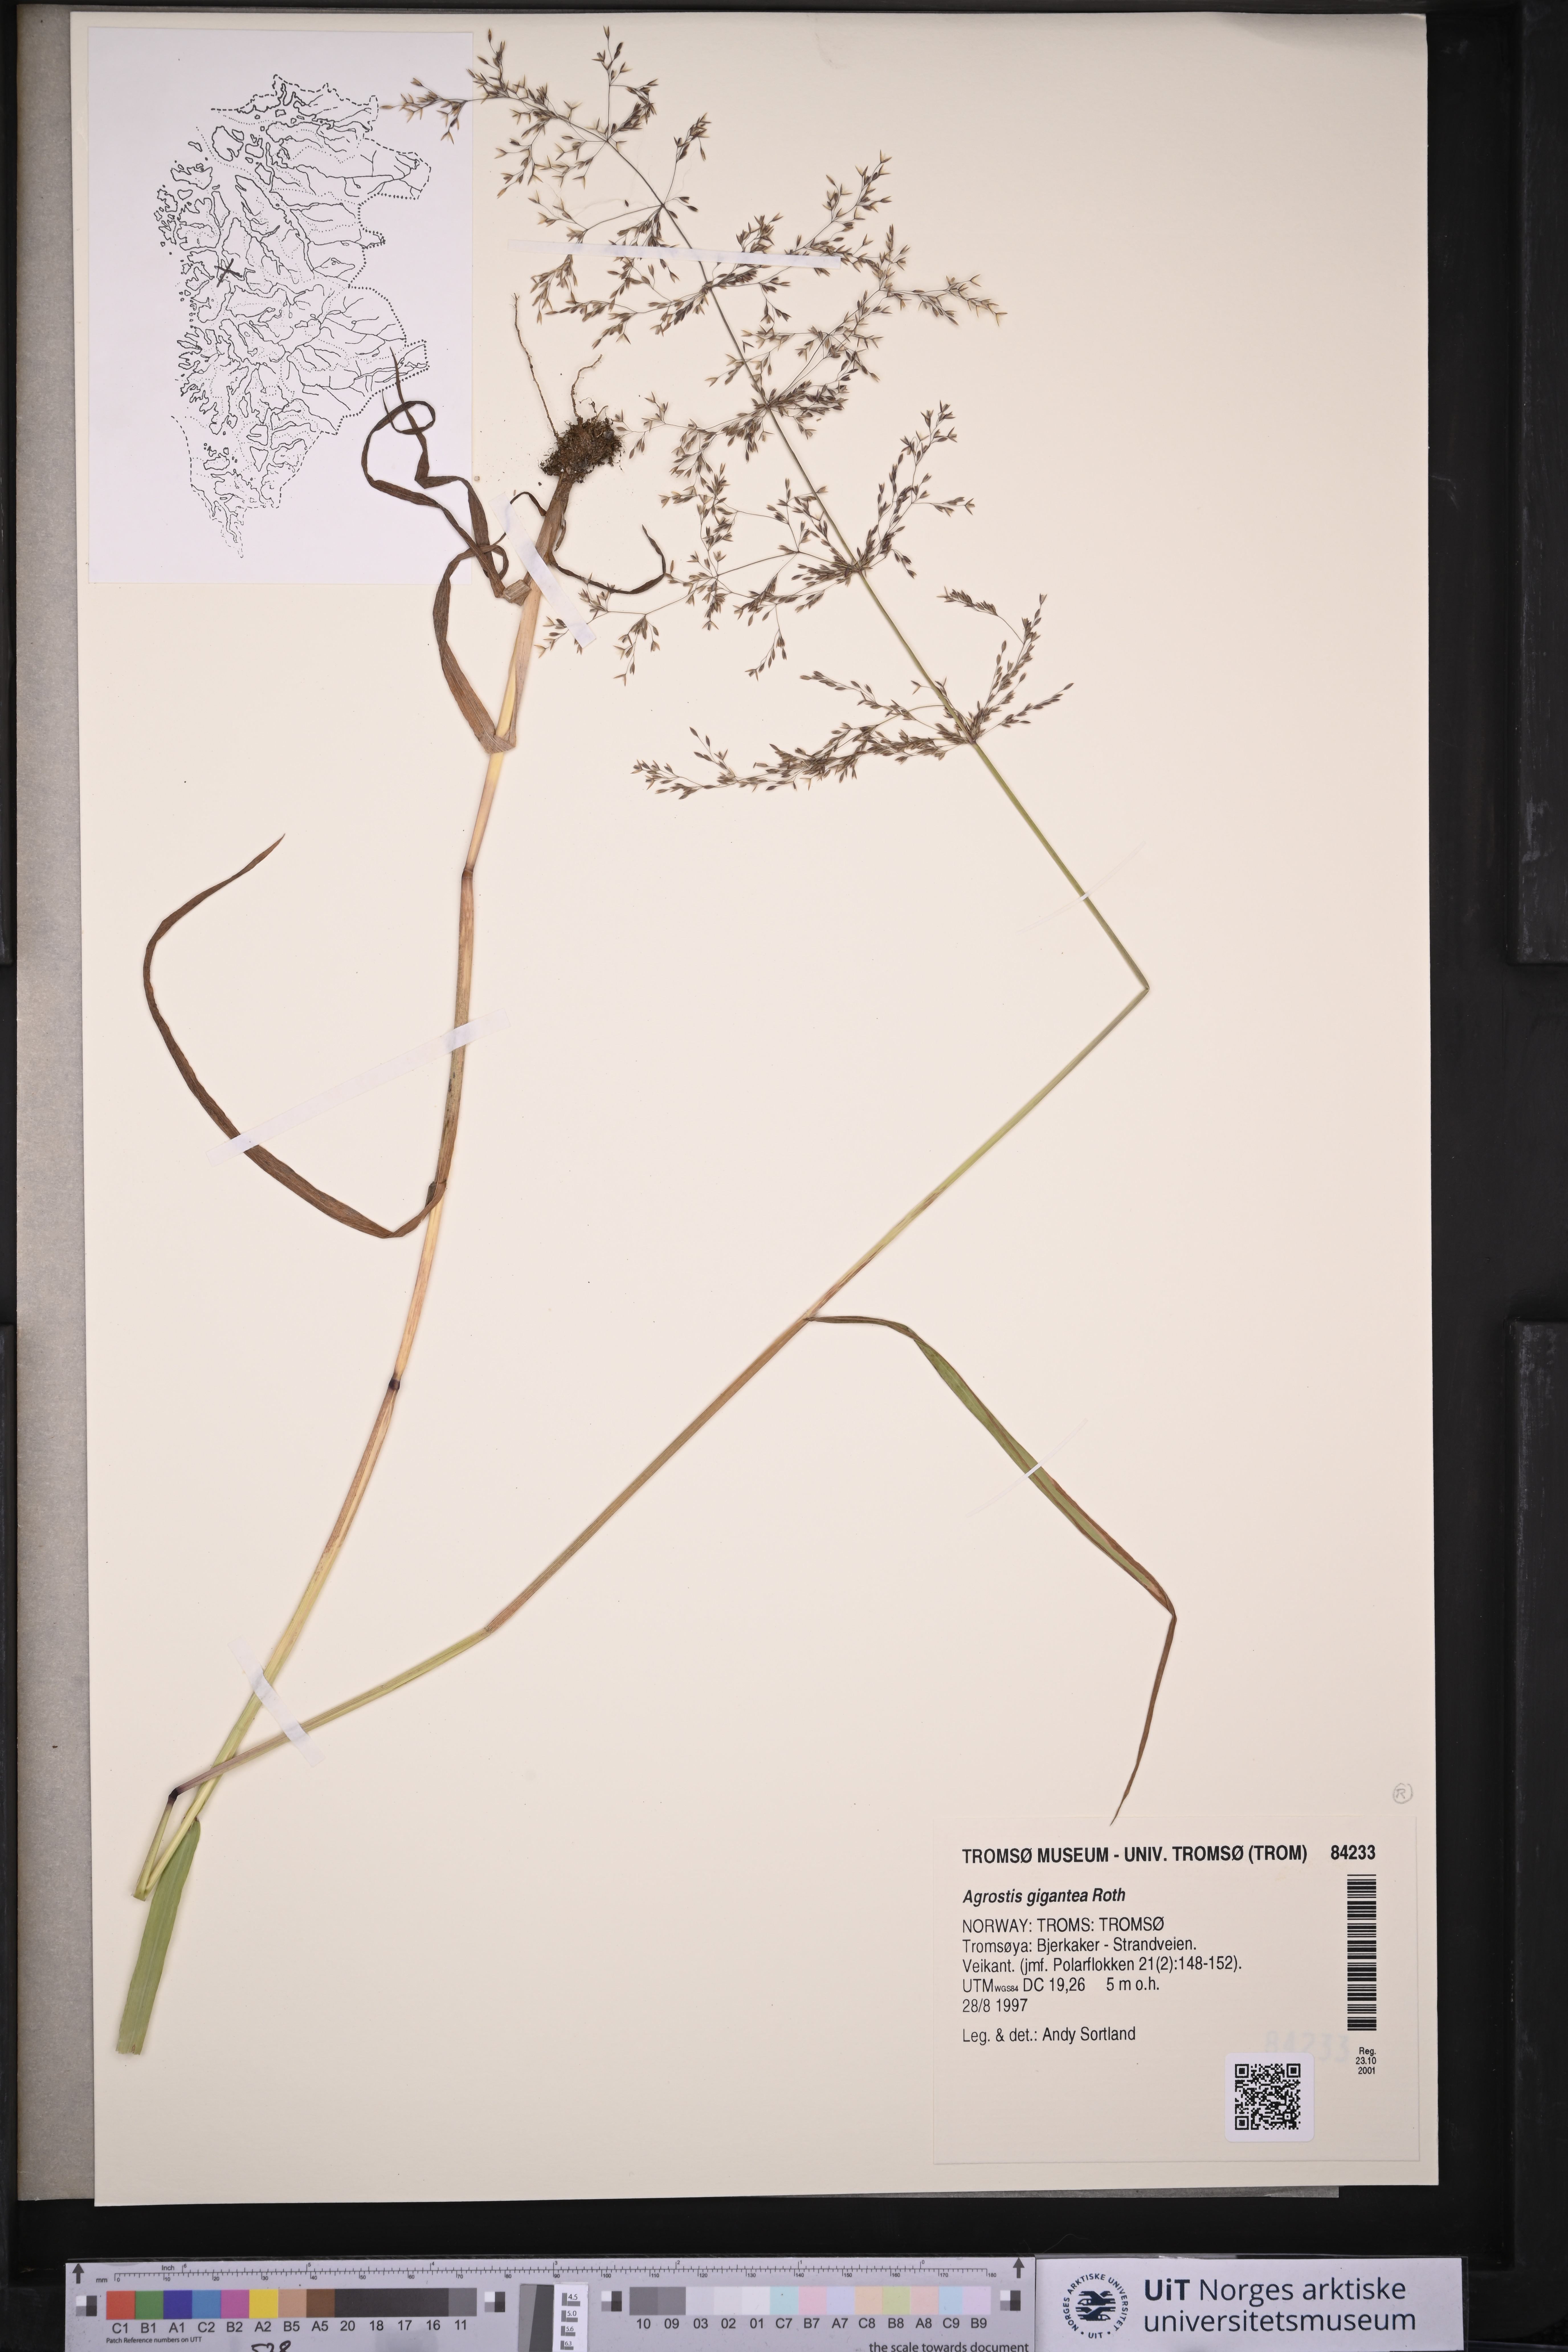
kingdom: Plantae
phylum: Tracheophyta
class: Liliopsida
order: Poales
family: Poaceae
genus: Agrostis
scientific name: Agrostis gigantea
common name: Black bent
